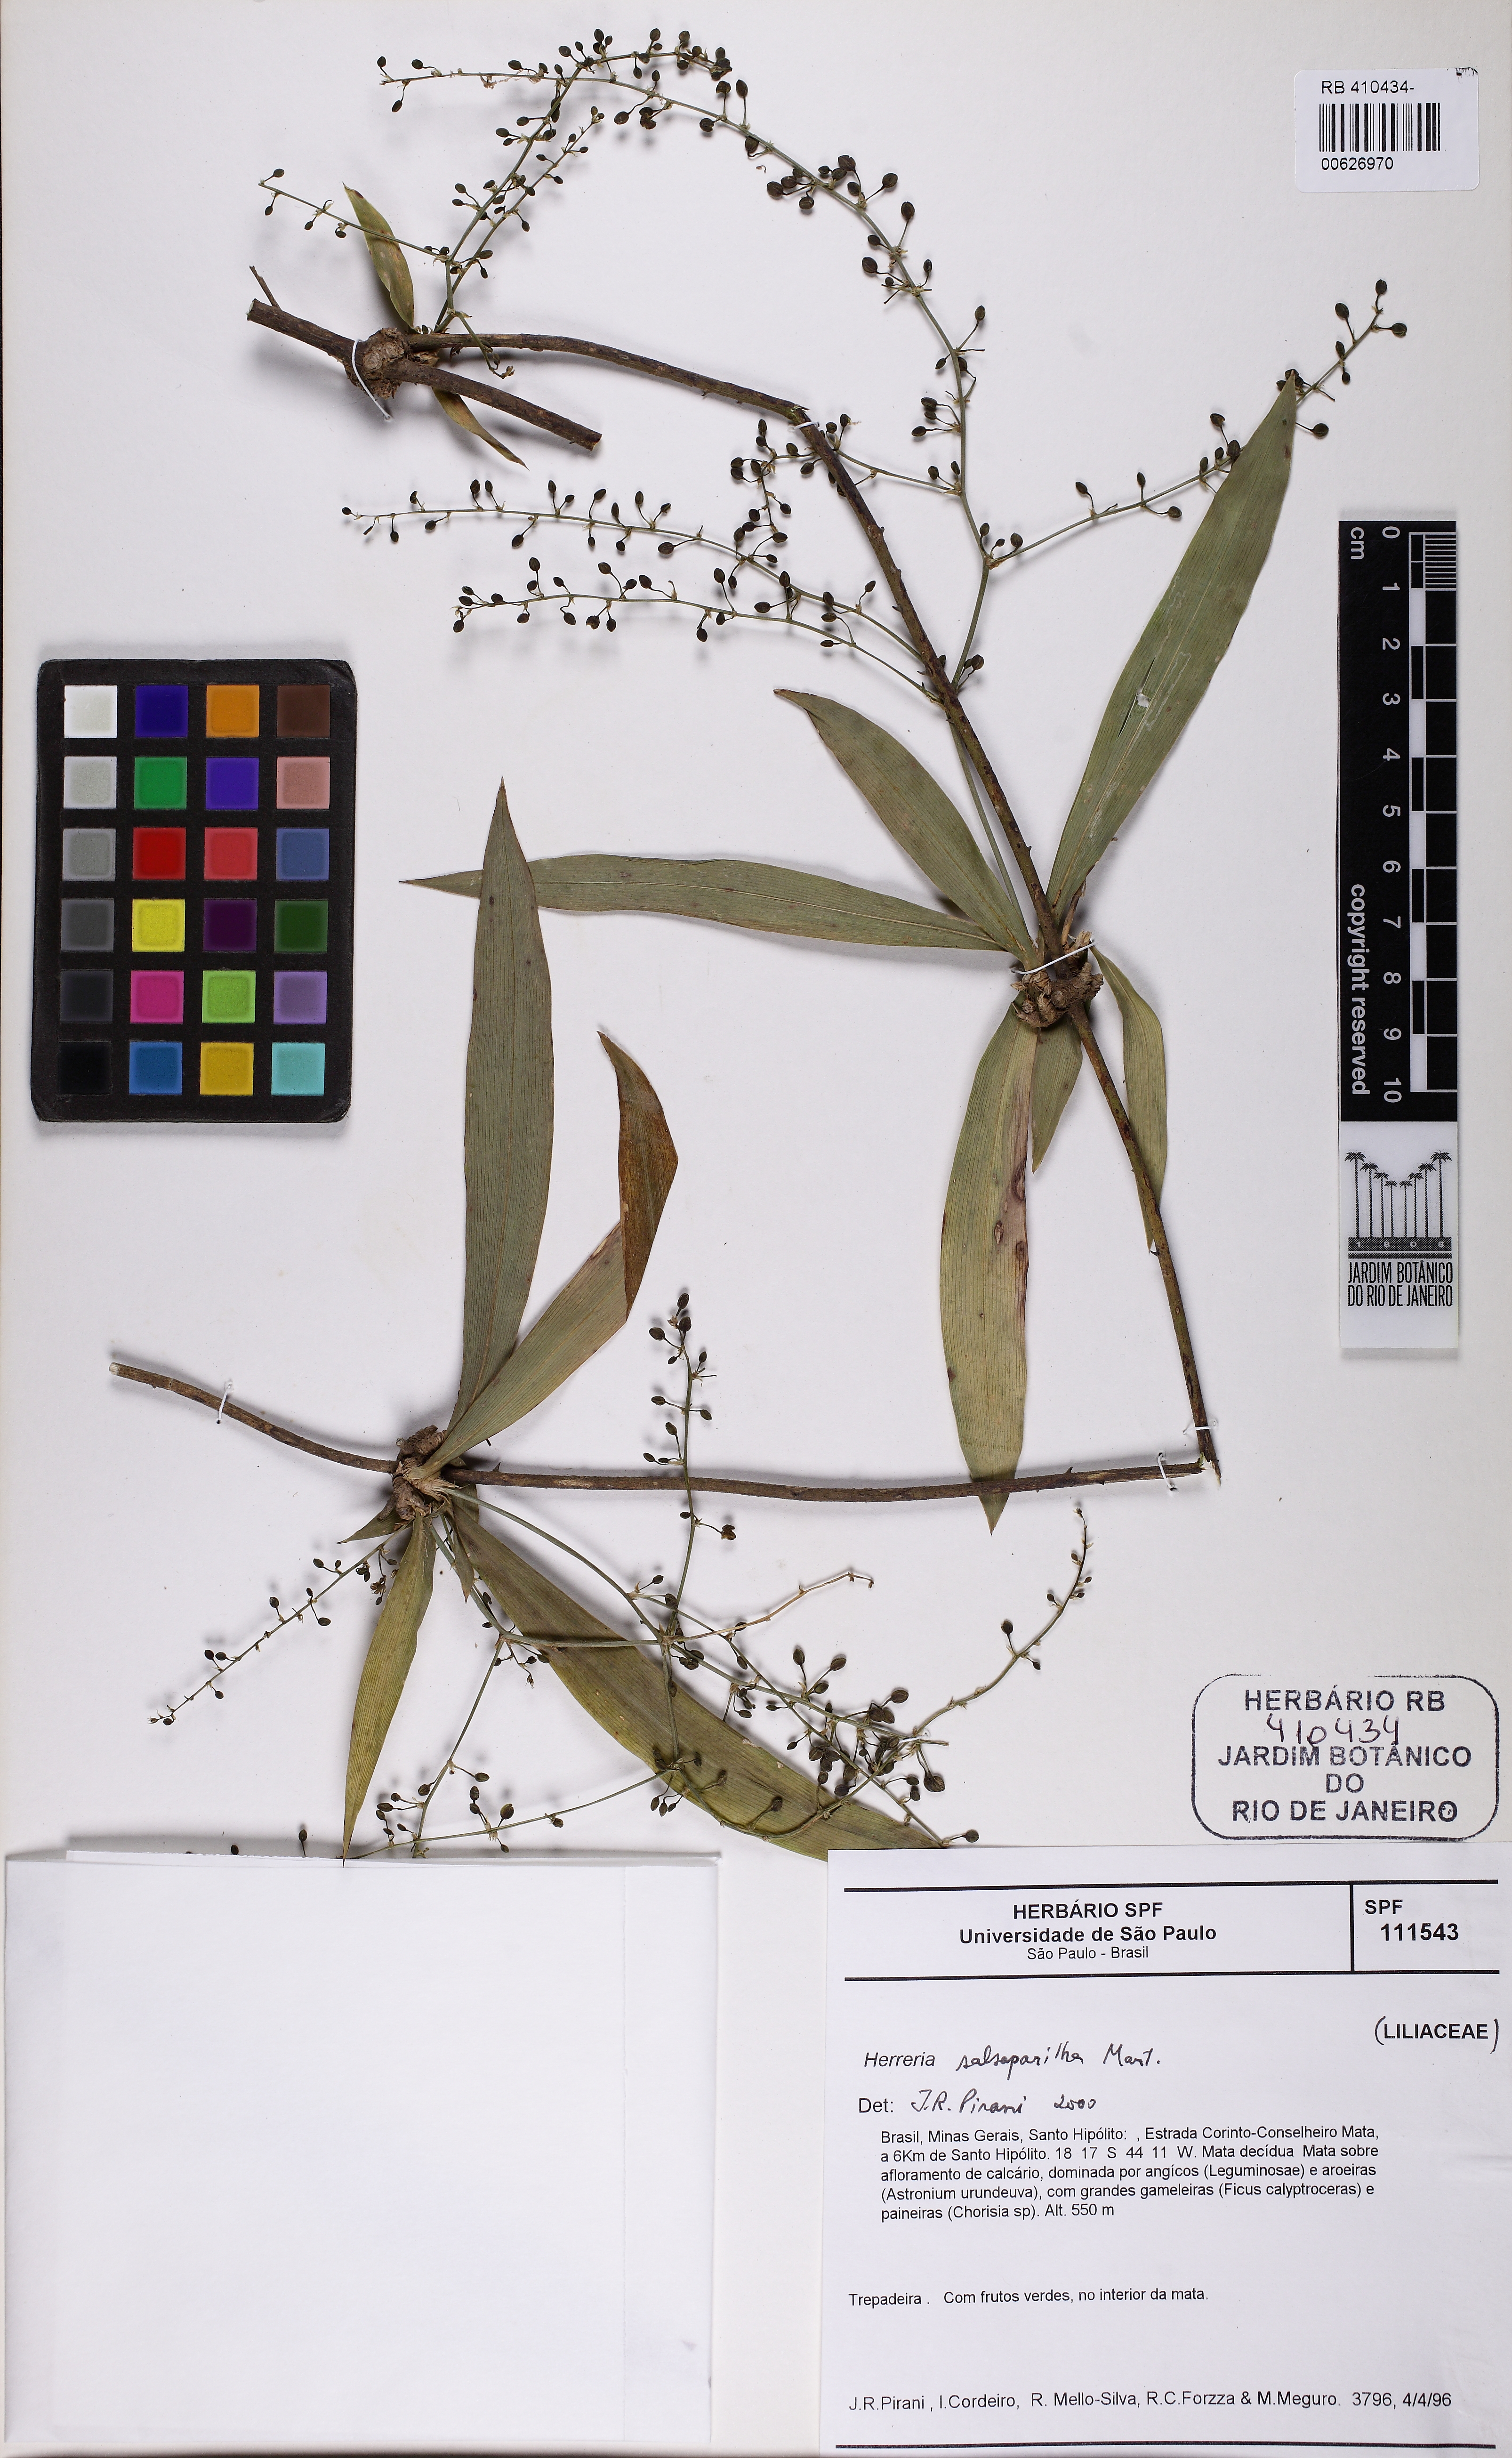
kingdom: Plantae
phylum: Tracheophyta
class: Liliopsida
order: Asparagales
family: Asparagaceae
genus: Herreria
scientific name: Herreria salsaparilha
